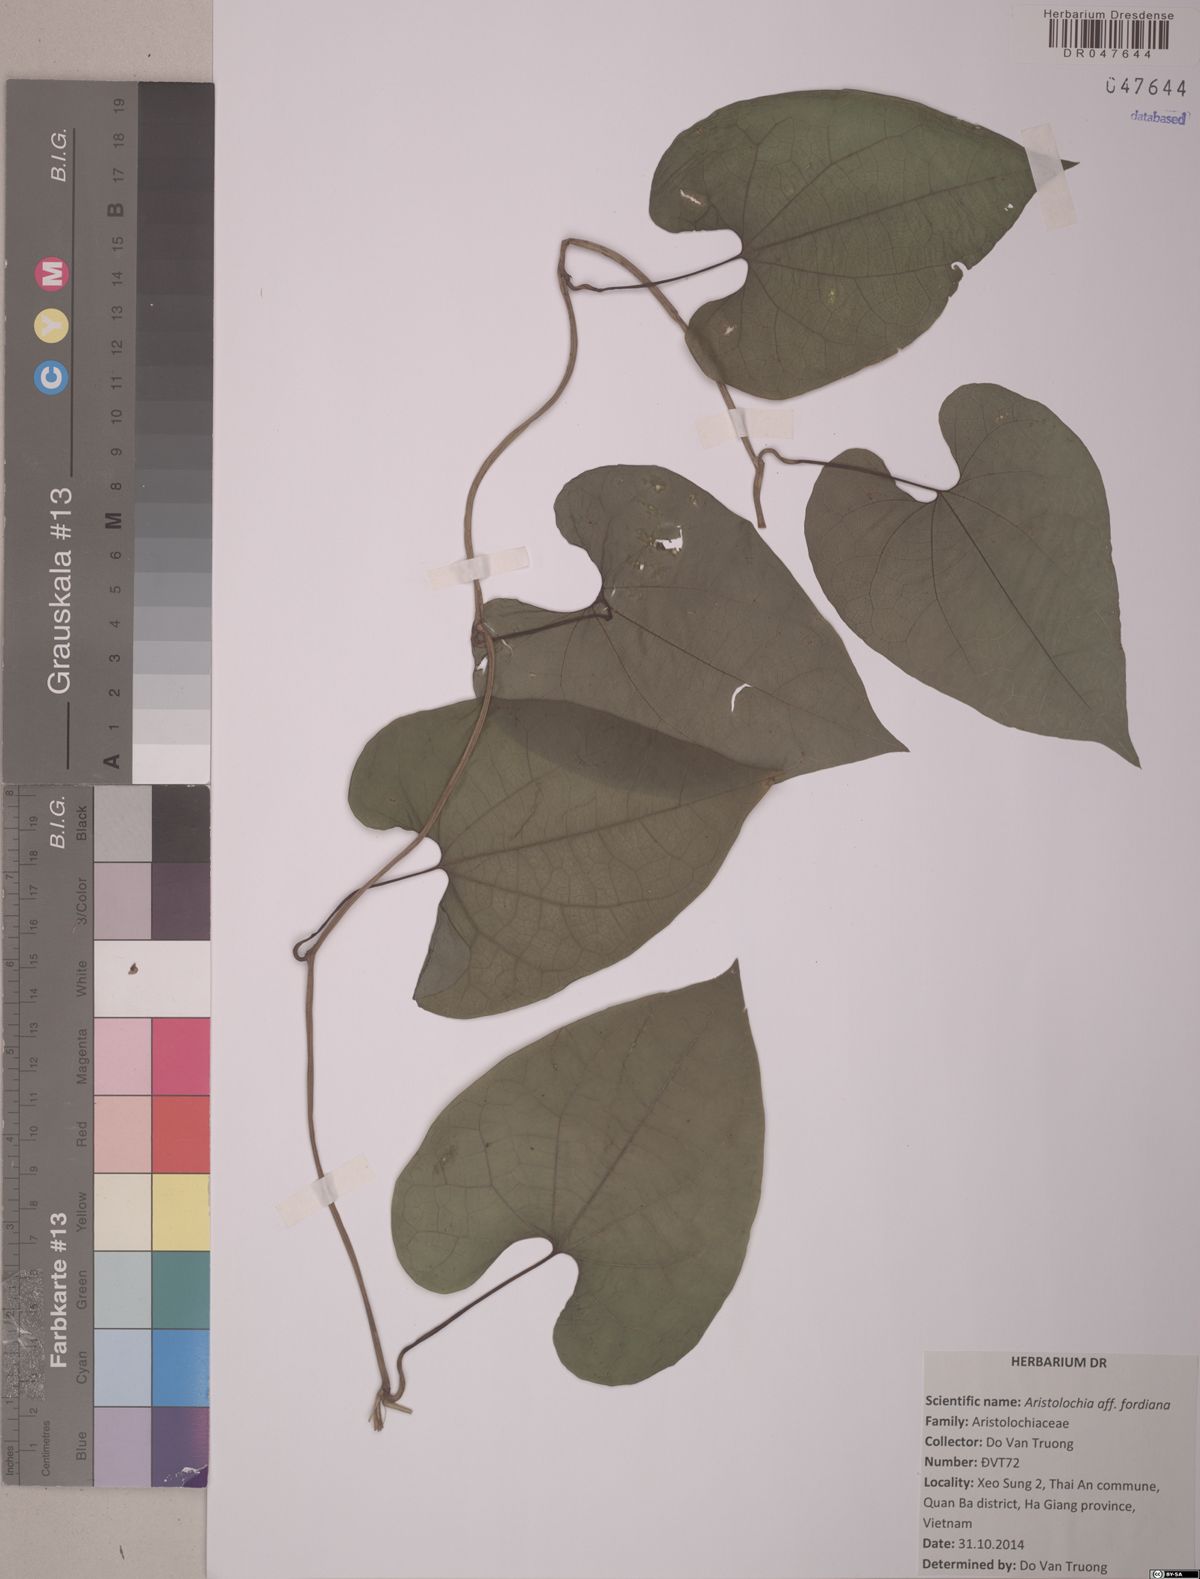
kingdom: Plantae
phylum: Tracheophyta
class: Magnoliopsida
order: Piperales
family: Aristolochiaceae
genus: Aristolochia
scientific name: Aristolochia chlamydophylla
